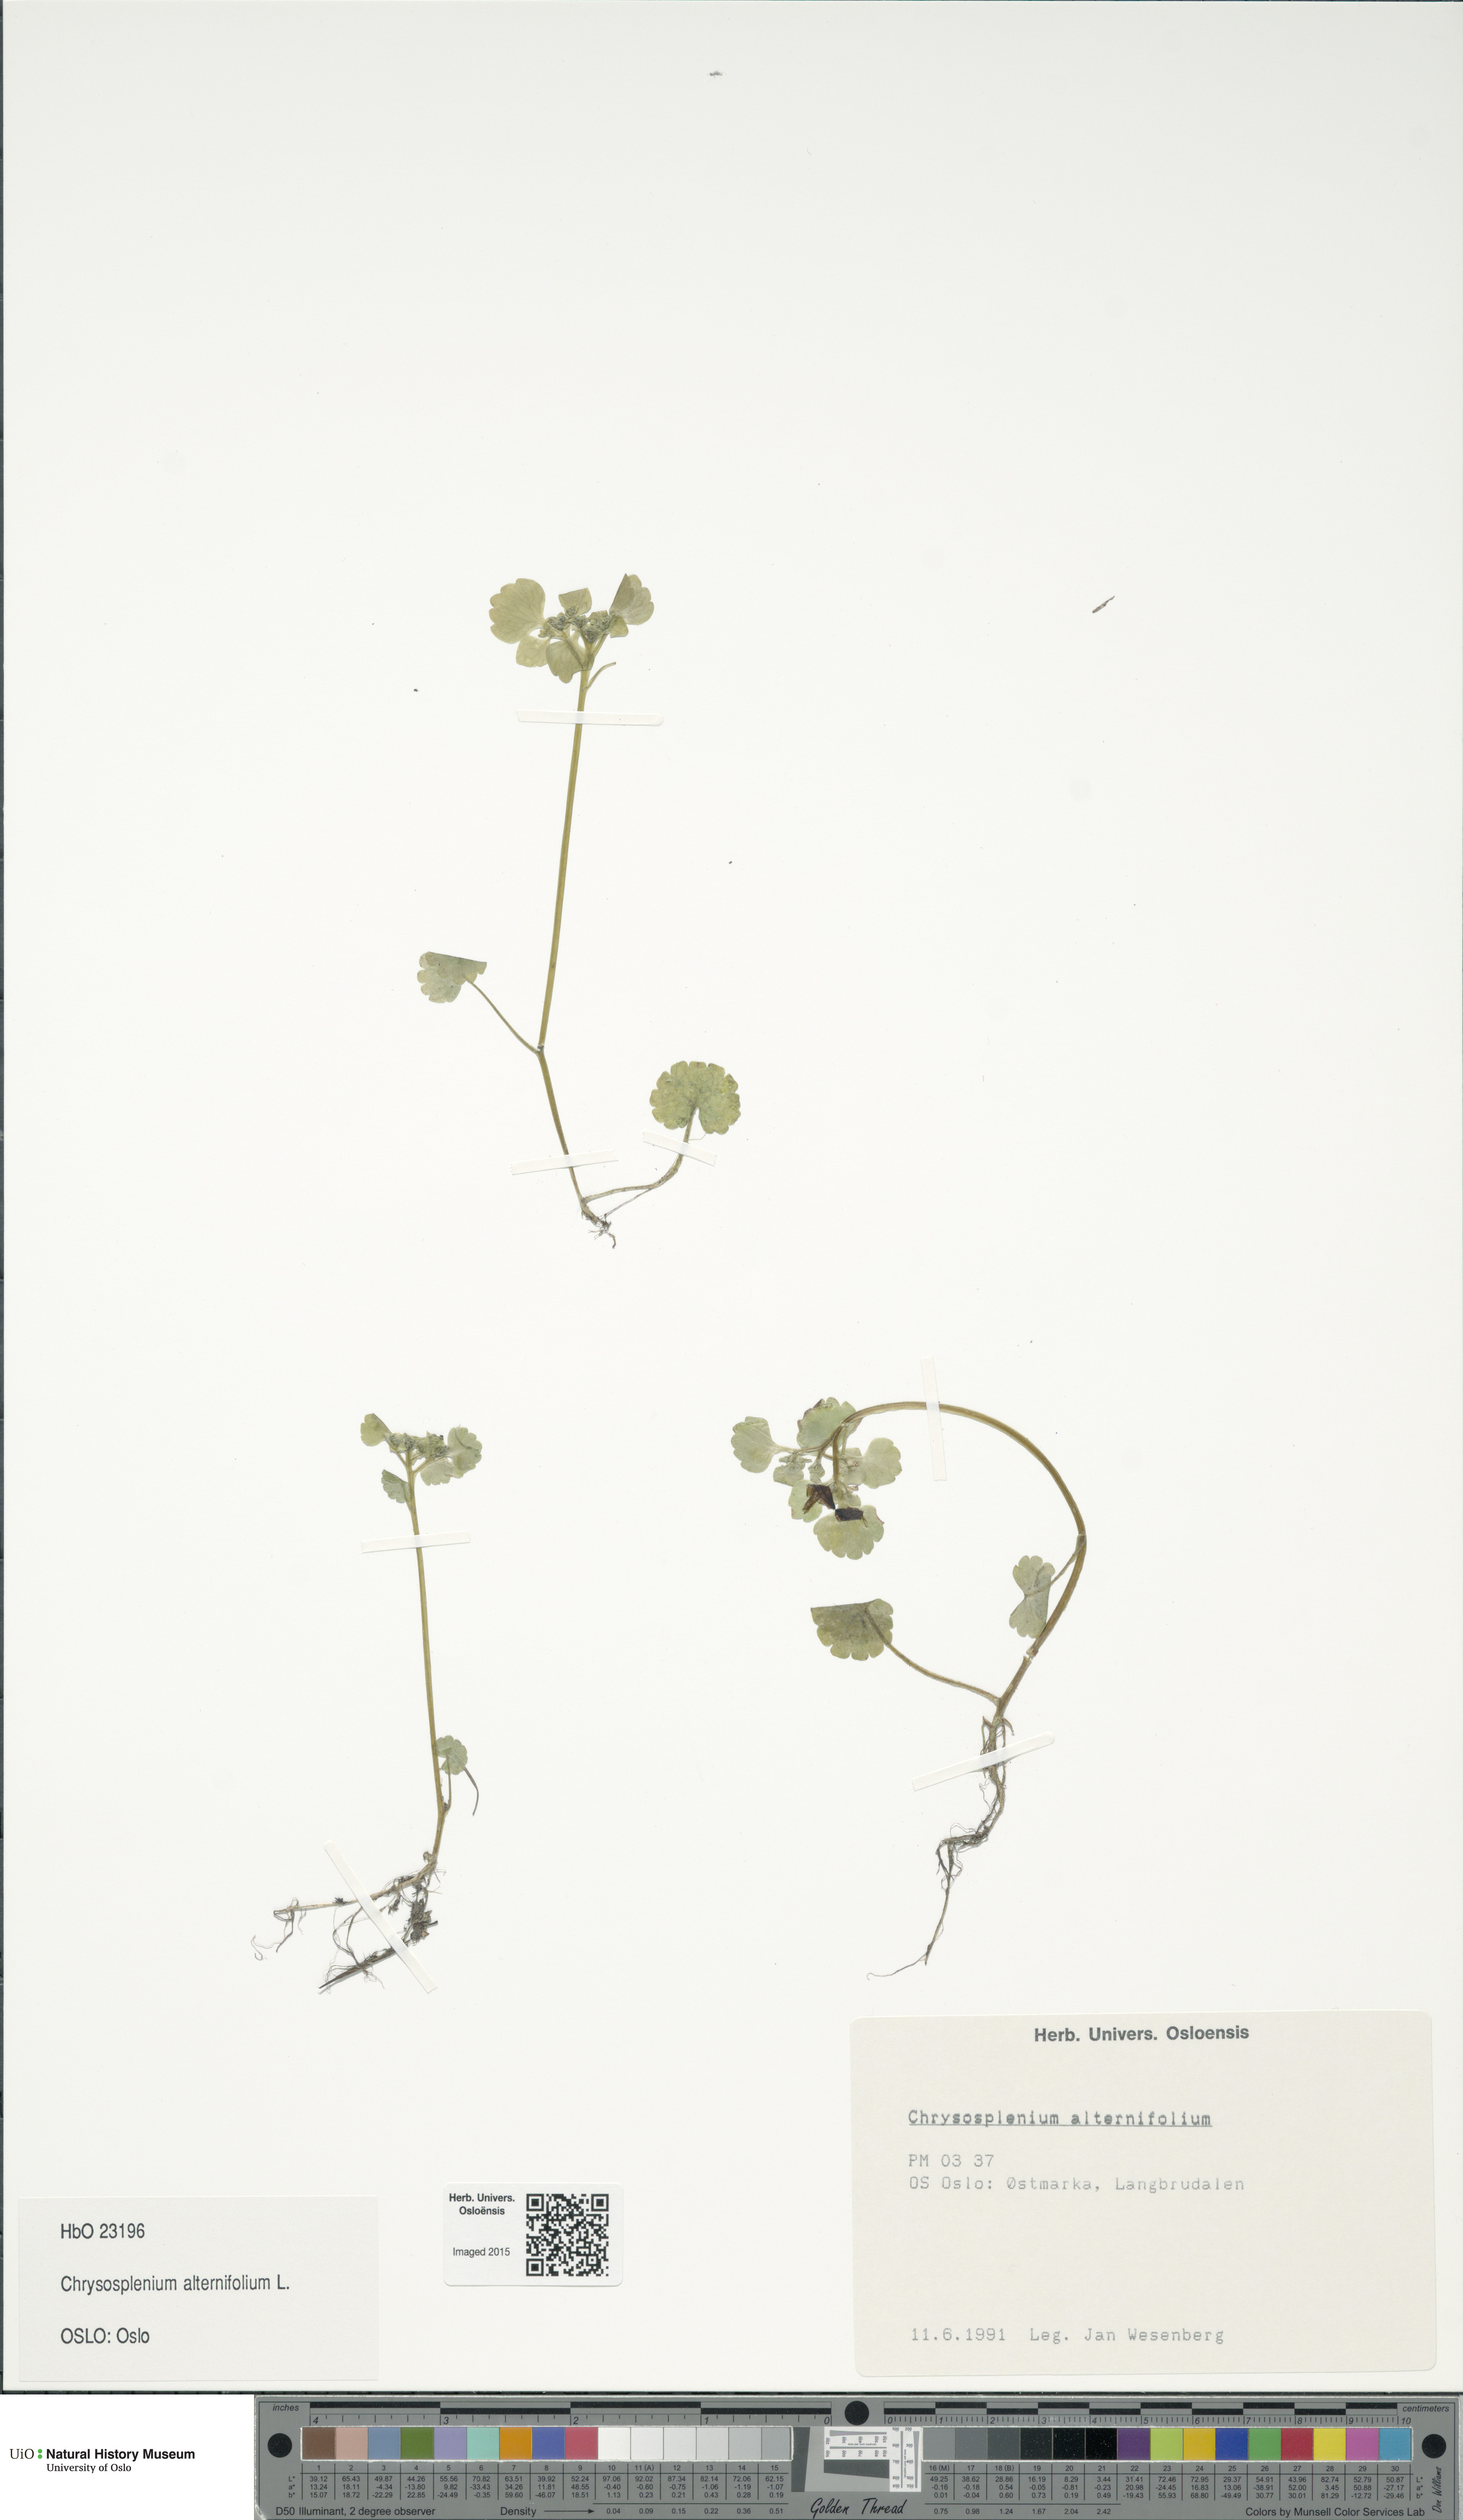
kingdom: Plantae
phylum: Tracheophyta
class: Magnoliopsida
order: Saxifragales
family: Saxifragaceae
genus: Chrysosplenium
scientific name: Chrysosplenium alternifolium
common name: Alternate-leaved golden-saxifrage
